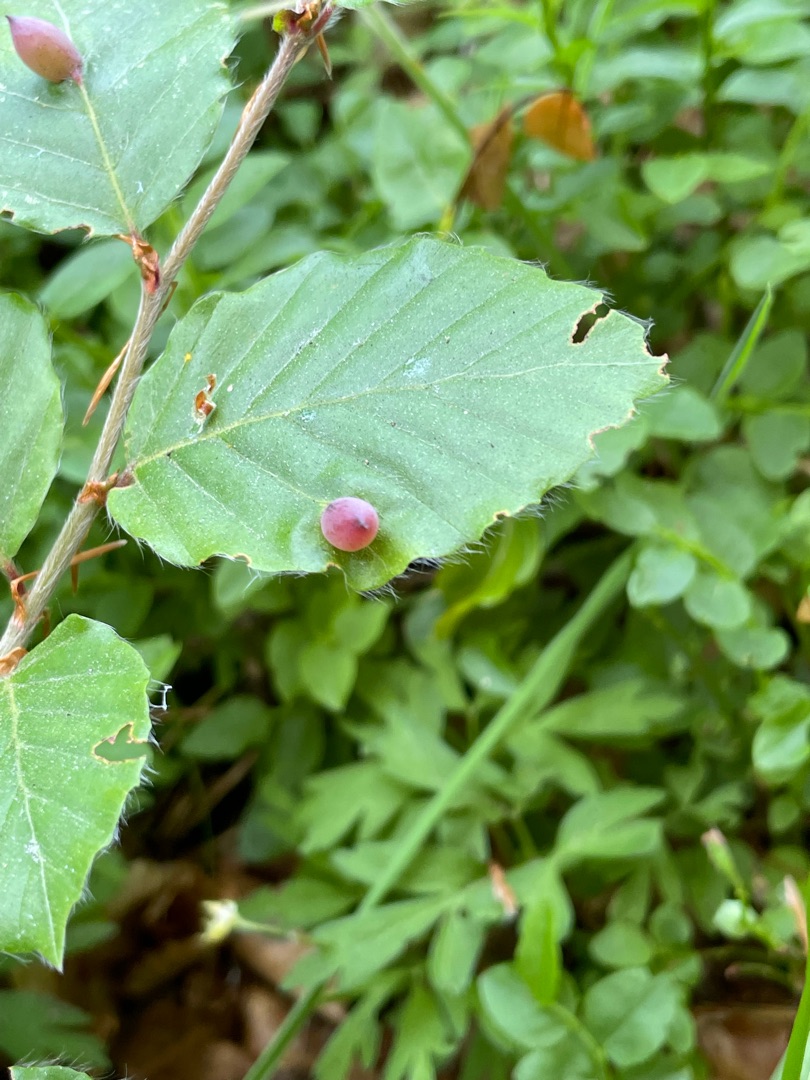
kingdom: Animalia
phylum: Arthropoda
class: Insecta
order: Diptera
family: Cecidomyiidae
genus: Mikiola
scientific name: Mikiola fagi
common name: Bøgegalmyg
